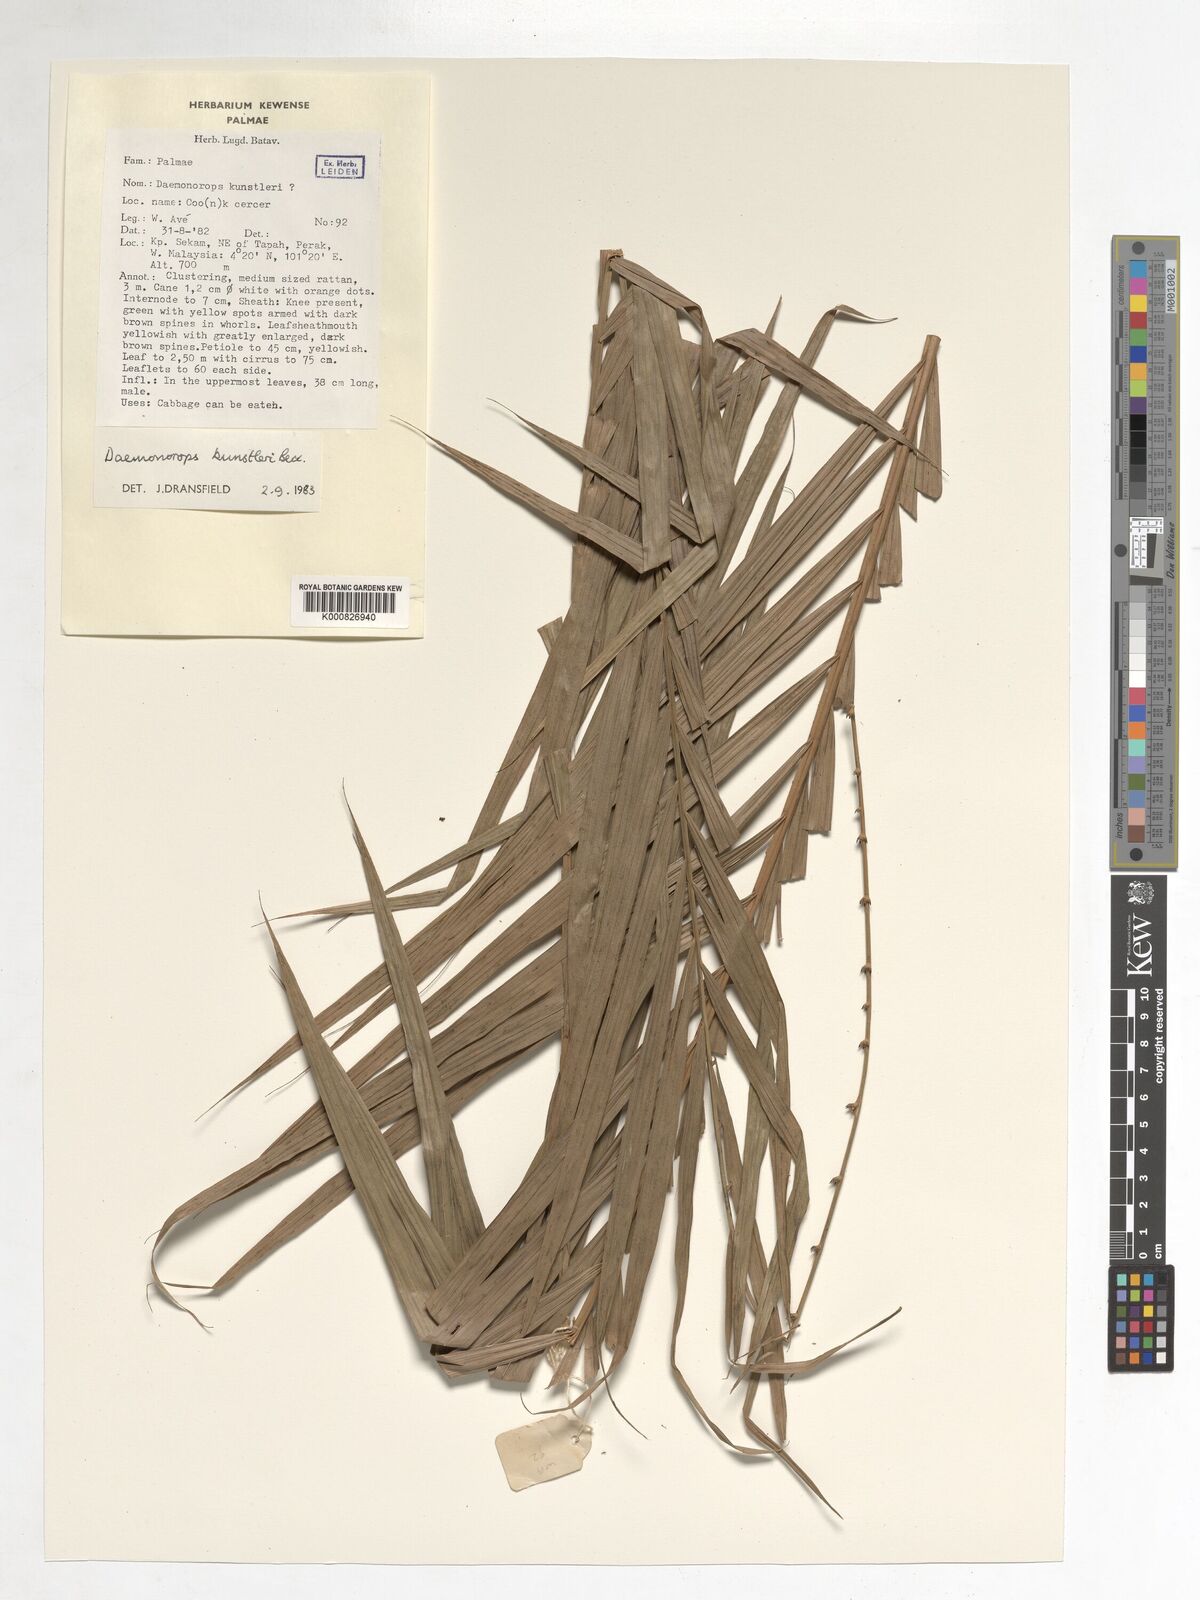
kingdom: Plantae
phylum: Tracheophyta
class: Liliopsida
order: Arecales
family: Arecaceae
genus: Calamus
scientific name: Calamus kunstleri
